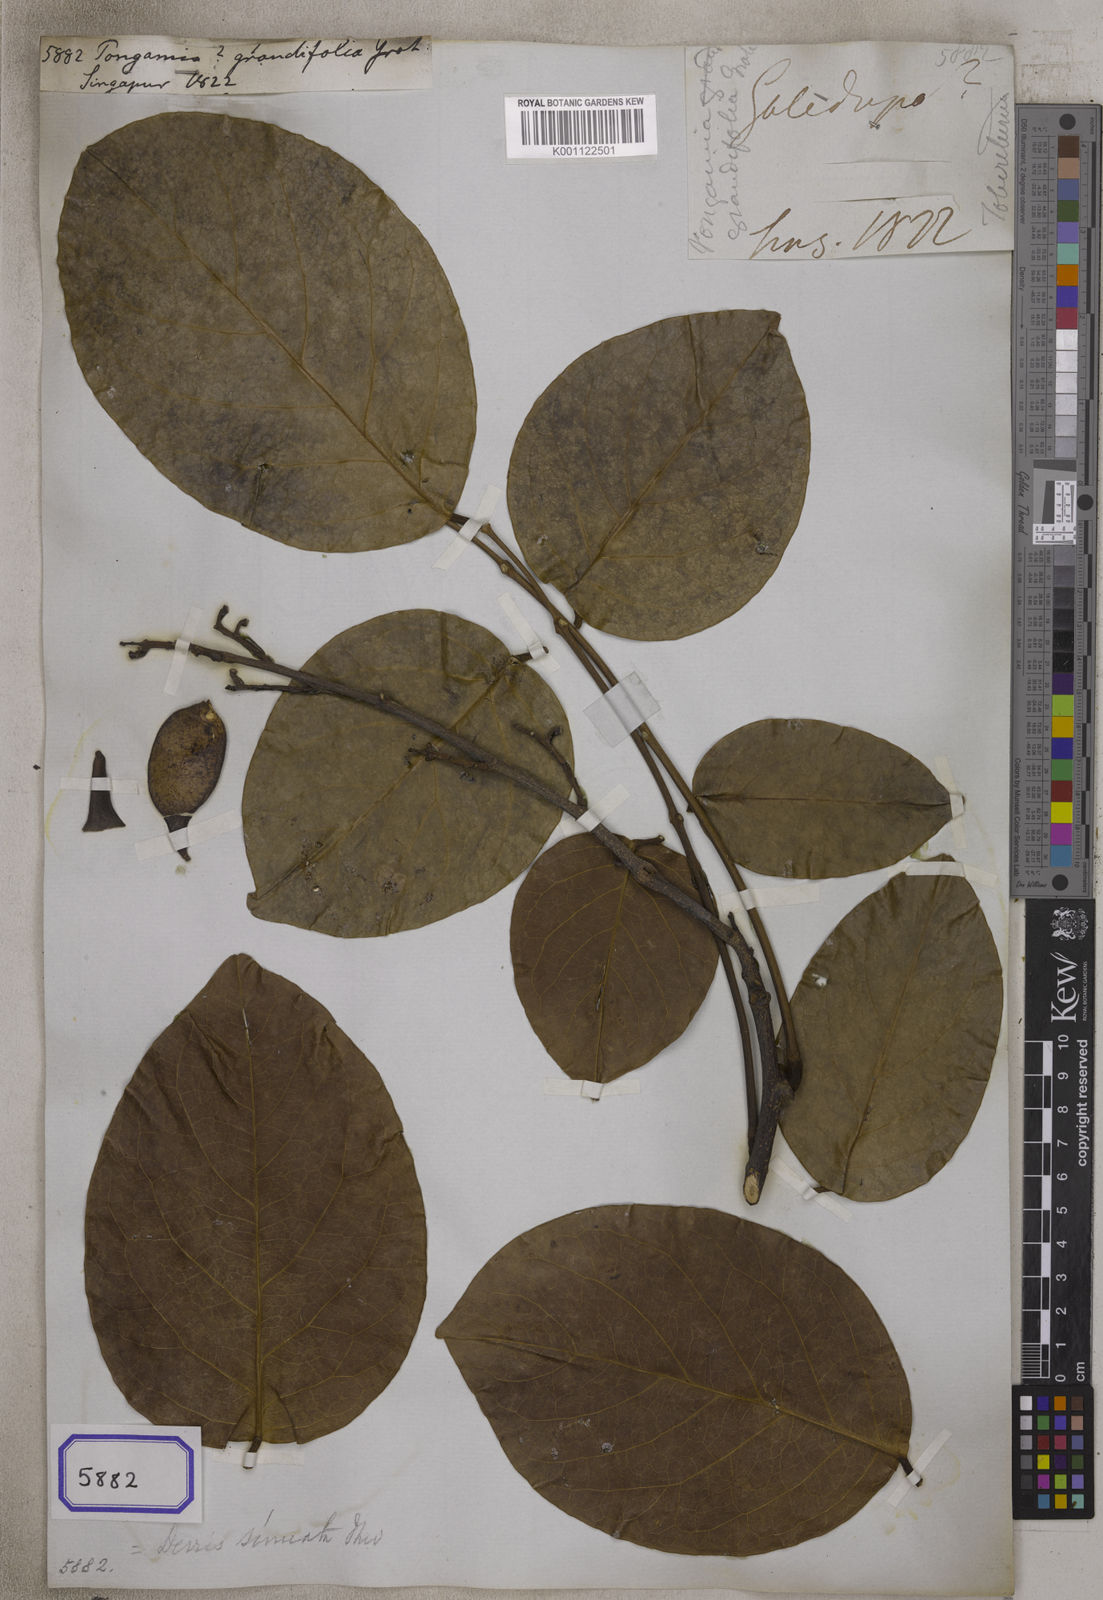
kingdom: Plantae
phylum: Tracheophyta
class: Magnoliopsida
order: Fabales
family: Fabaceae
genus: Aganope
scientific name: Aganope heptaphylla
